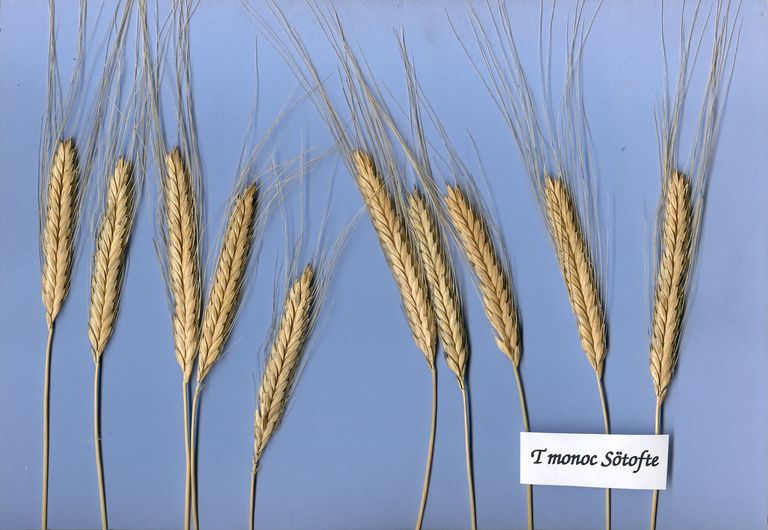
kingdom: Plantae
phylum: Tracheophyta
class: Liliopsida
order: Poales
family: Poaceae
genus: Triticum
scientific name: Triticum monococcum
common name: Einkorn
